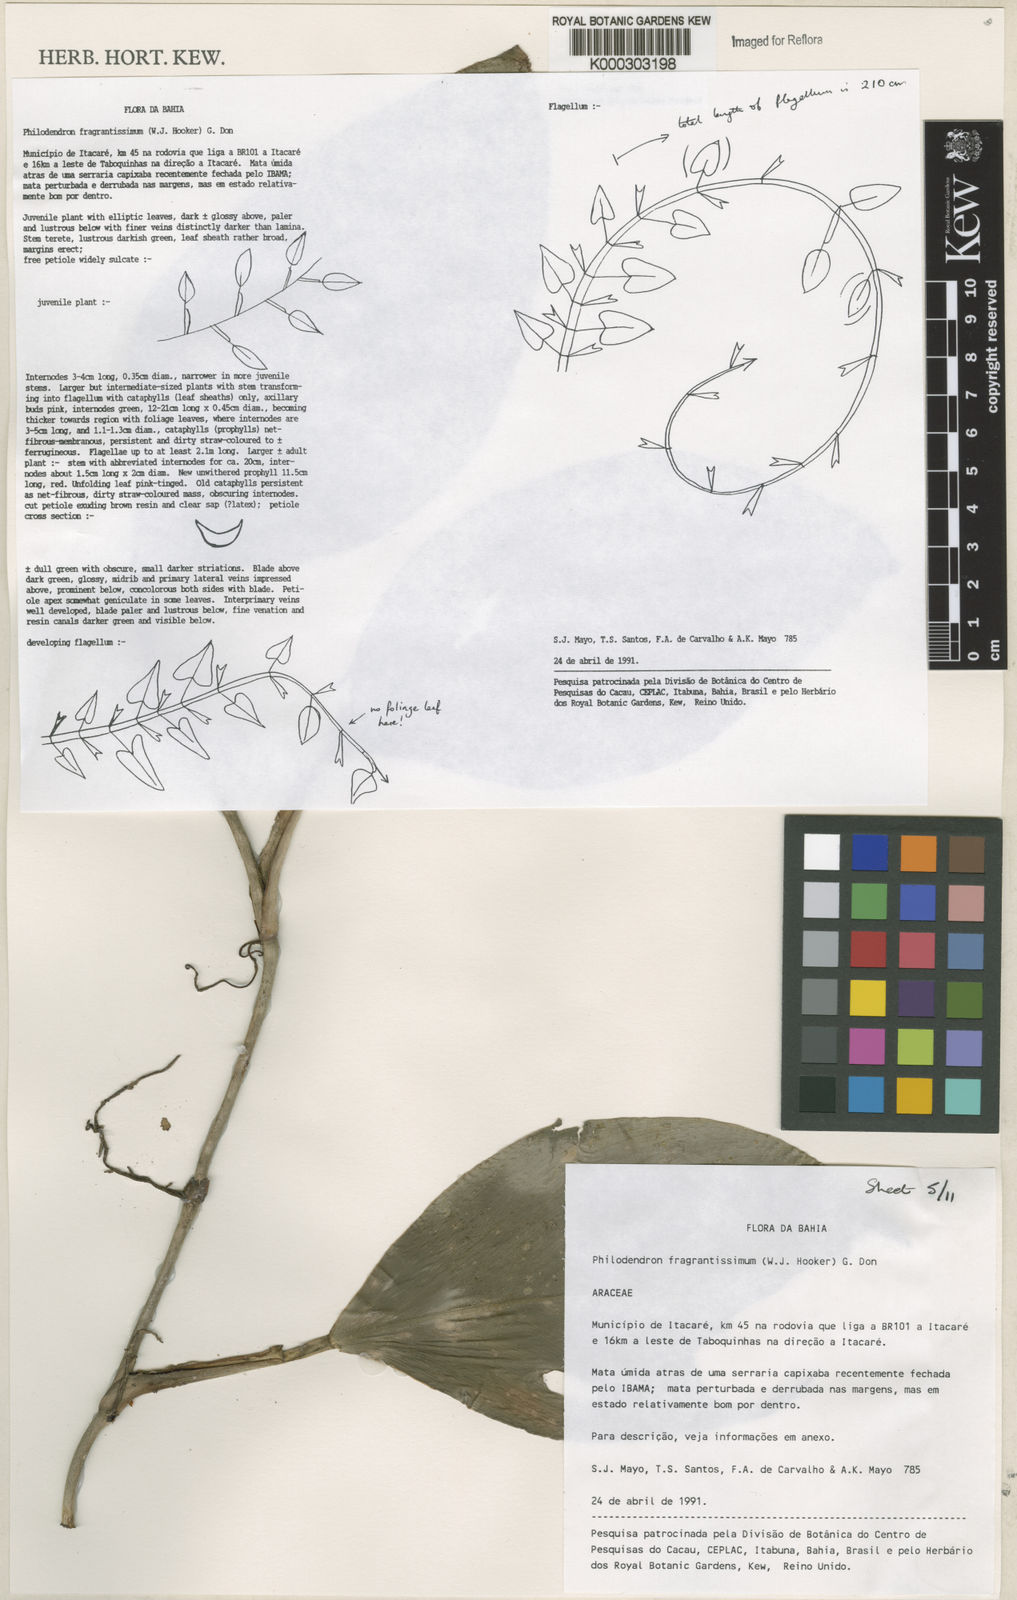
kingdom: Plantae
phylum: Tracheophyta
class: Liliopsida
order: Alismatales
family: Araceae
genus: Philodendron
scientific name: Philodendron fragrantissimum
